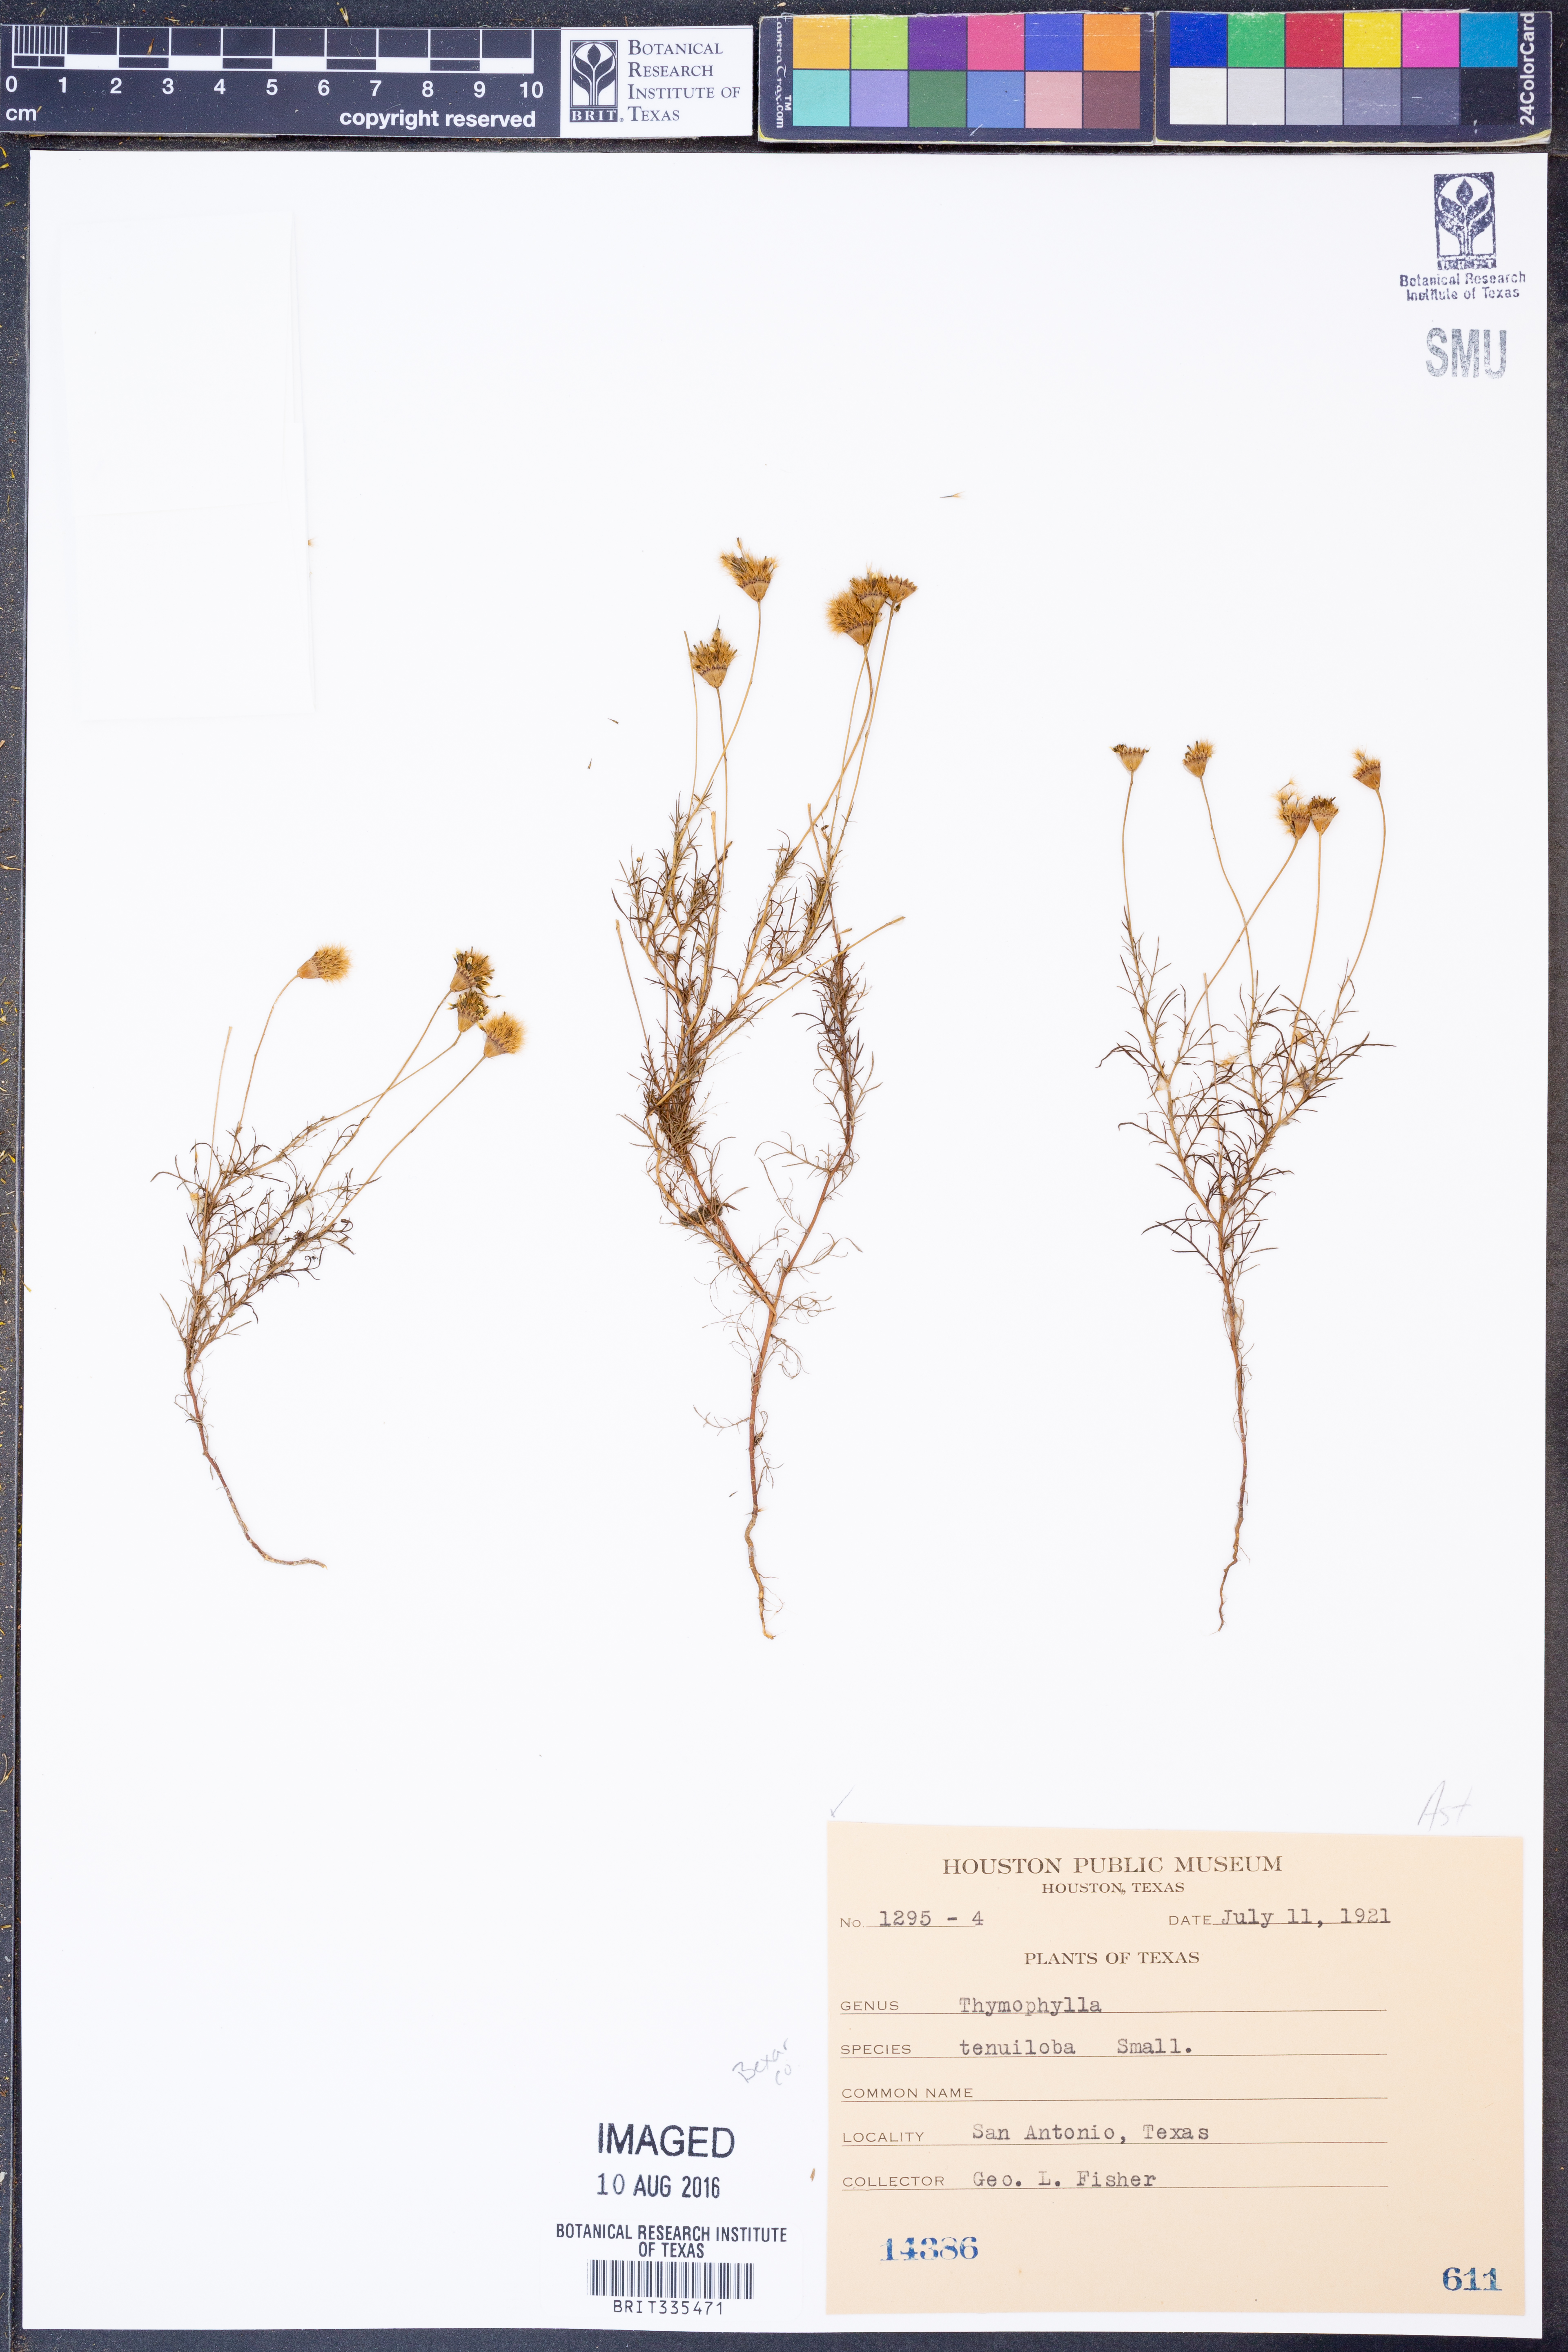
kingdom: Plantae
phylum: Tracheophyta
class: Magnoliopsida
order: Asterales
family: Asteraceae
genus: Thymophylla
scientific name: Thymophylla tenuiloba
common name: Dahlberg's daisy
